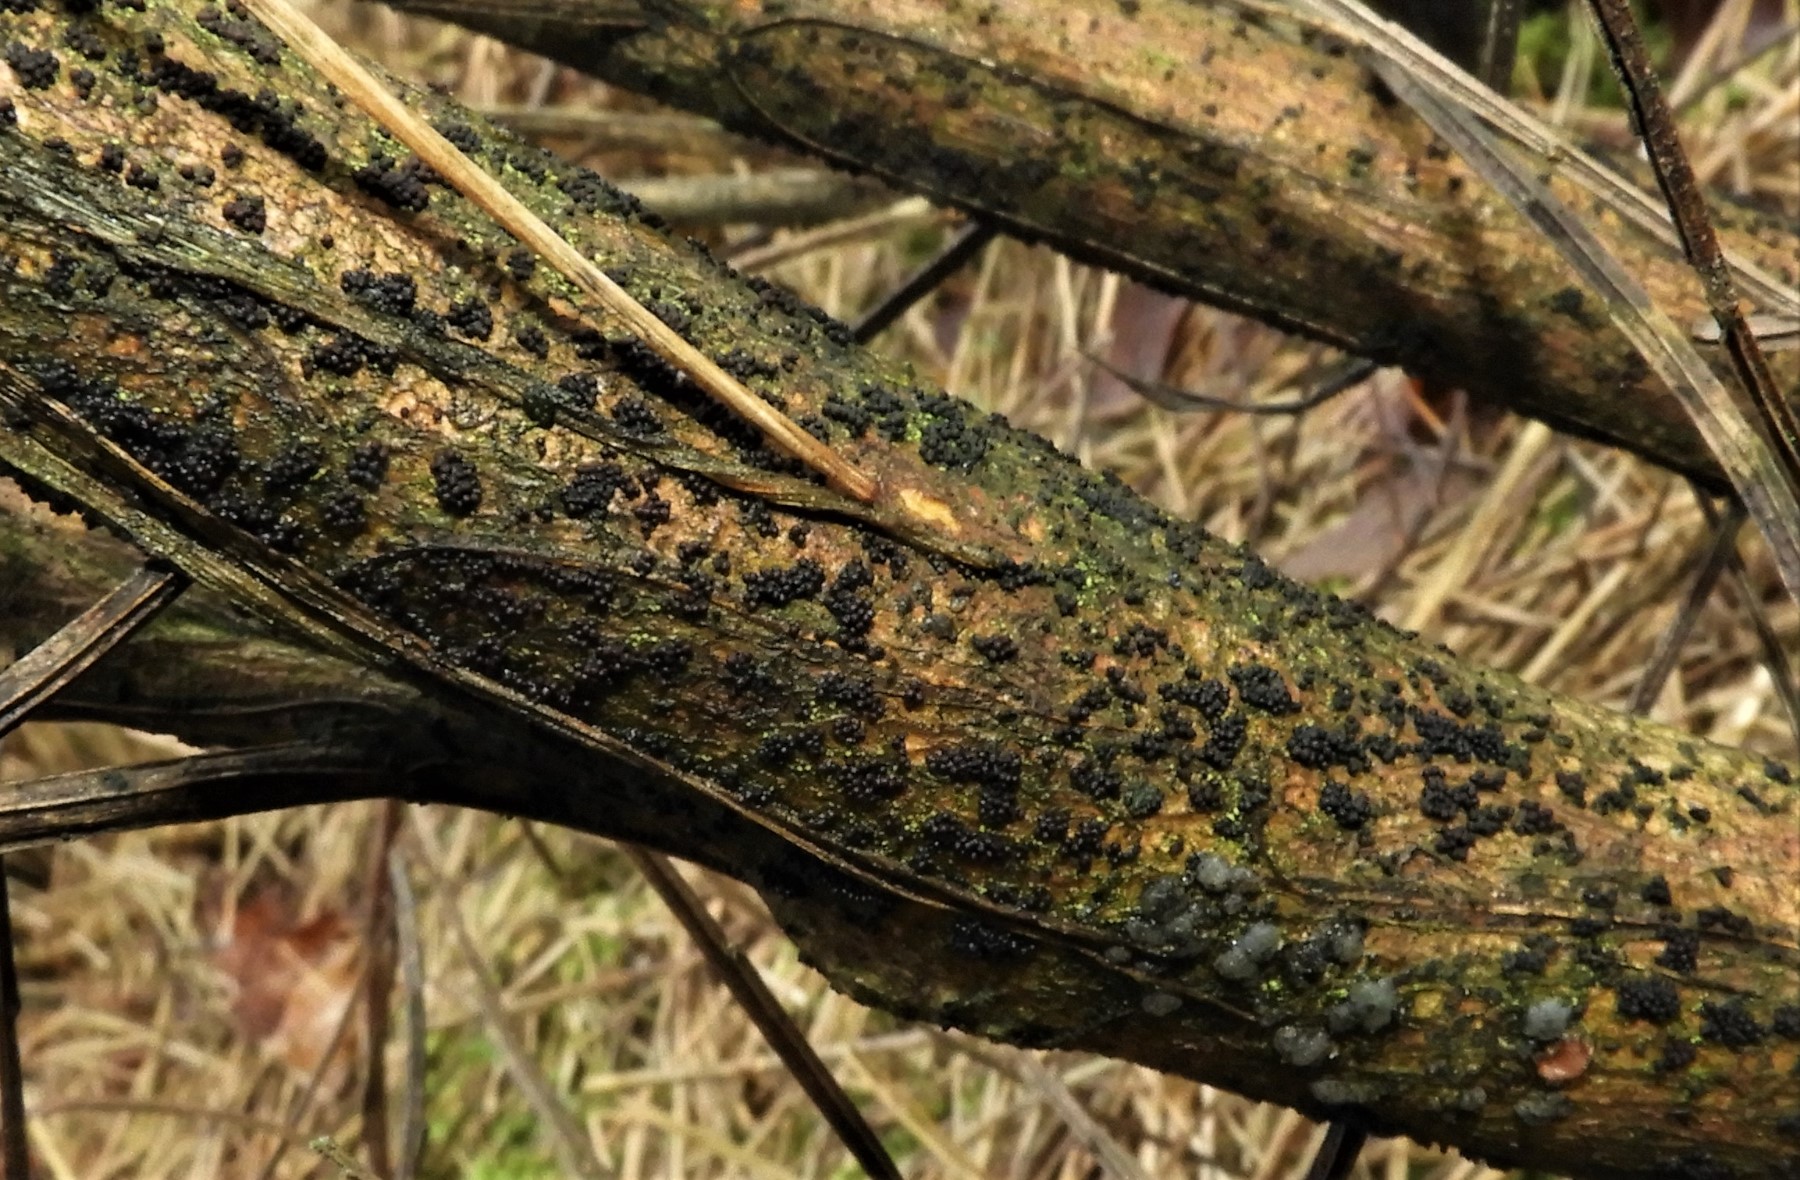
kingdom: Fungi
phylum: Ascomycota
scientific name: Ascomycota
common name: sæksvampe
